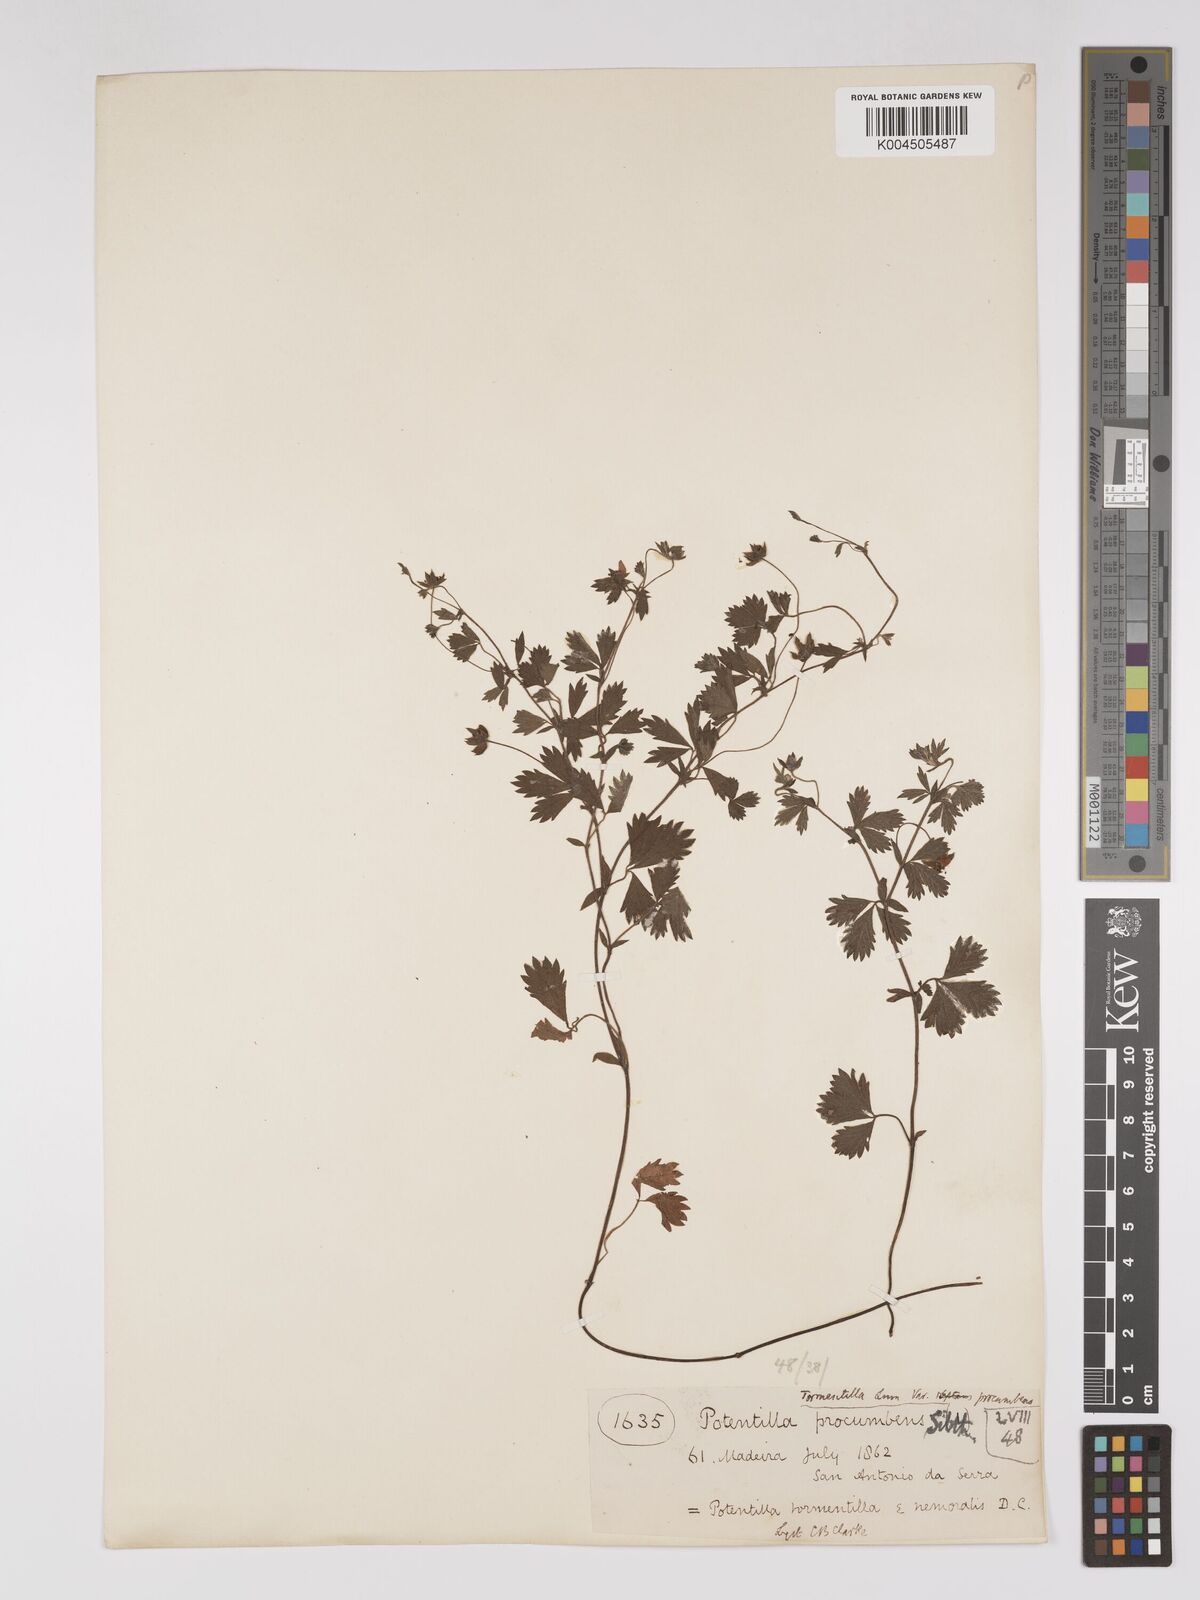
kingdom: Plantae
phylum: Tracheophyta
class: Magnoliopsida
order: Rosales
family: Rosaceae
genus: Potentilla
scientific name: Potentilla
